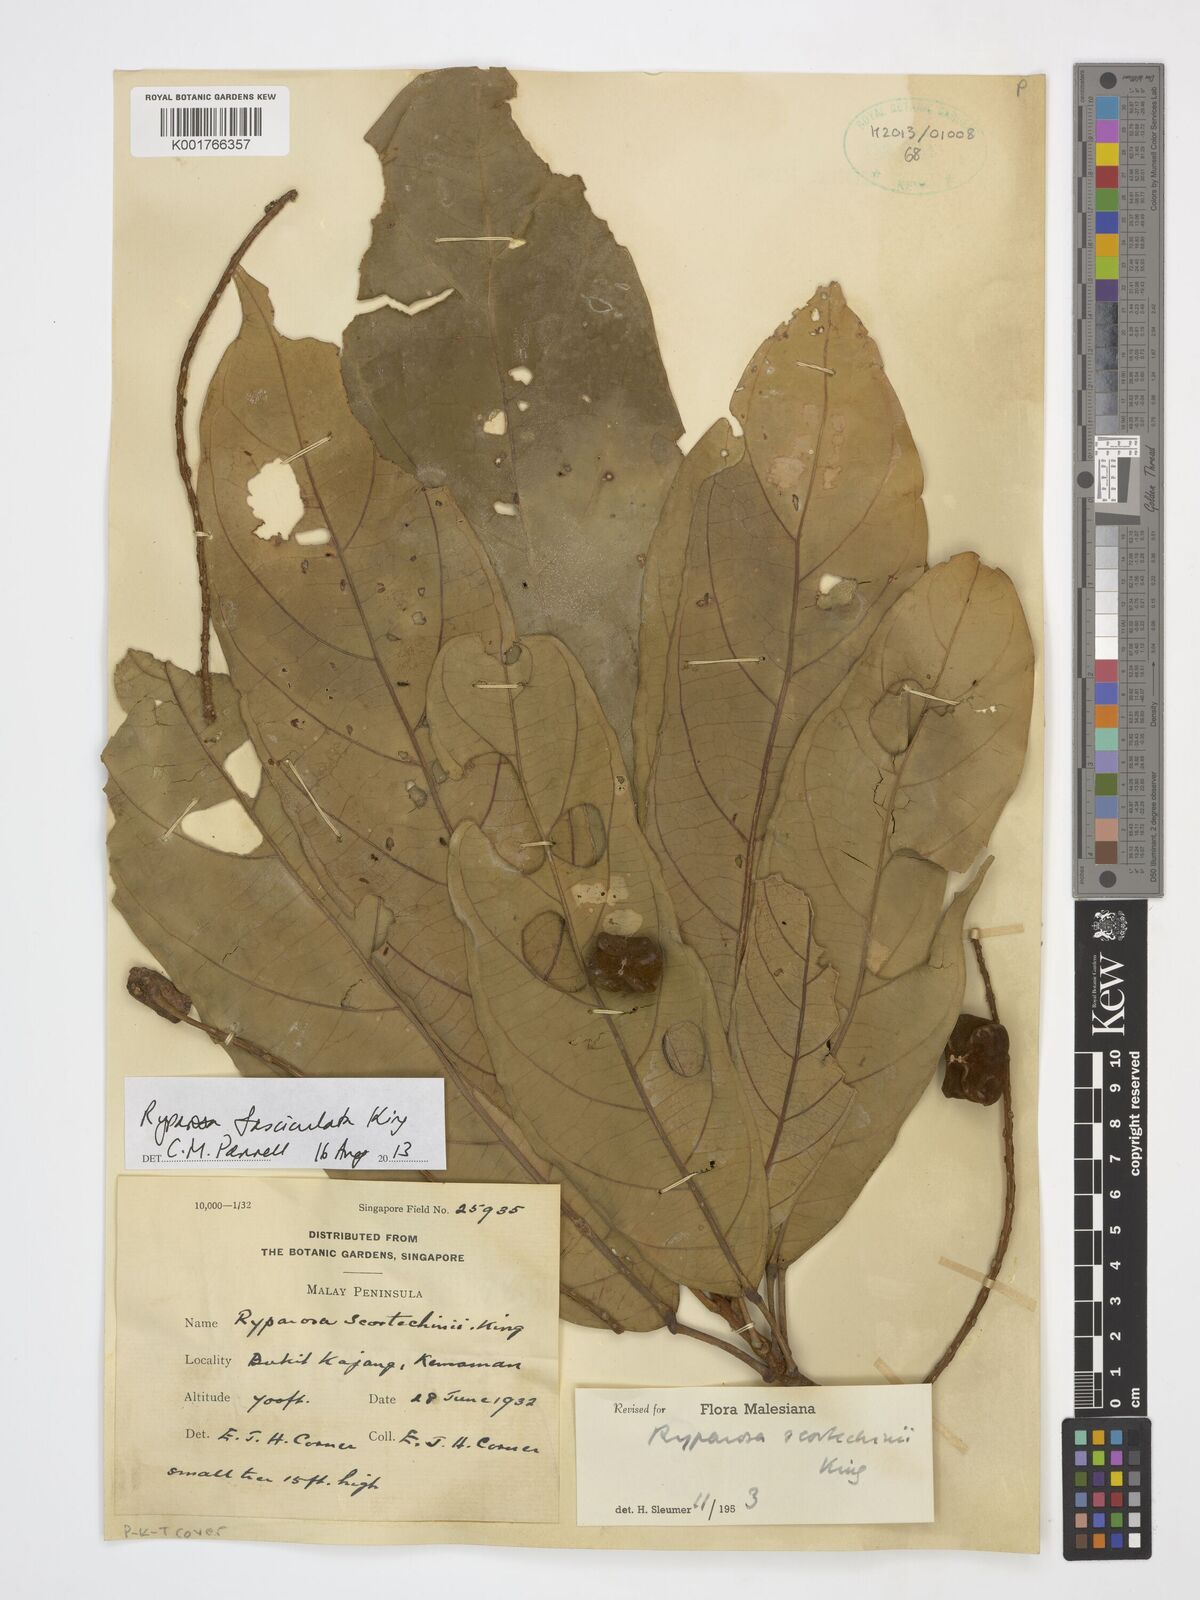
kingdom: Plantae
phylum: Tracheophyta
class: Magnoliopsida
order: Malpighiales
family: Achariaceae
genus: Ryparosa
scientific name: Ryparosa fasciculata
